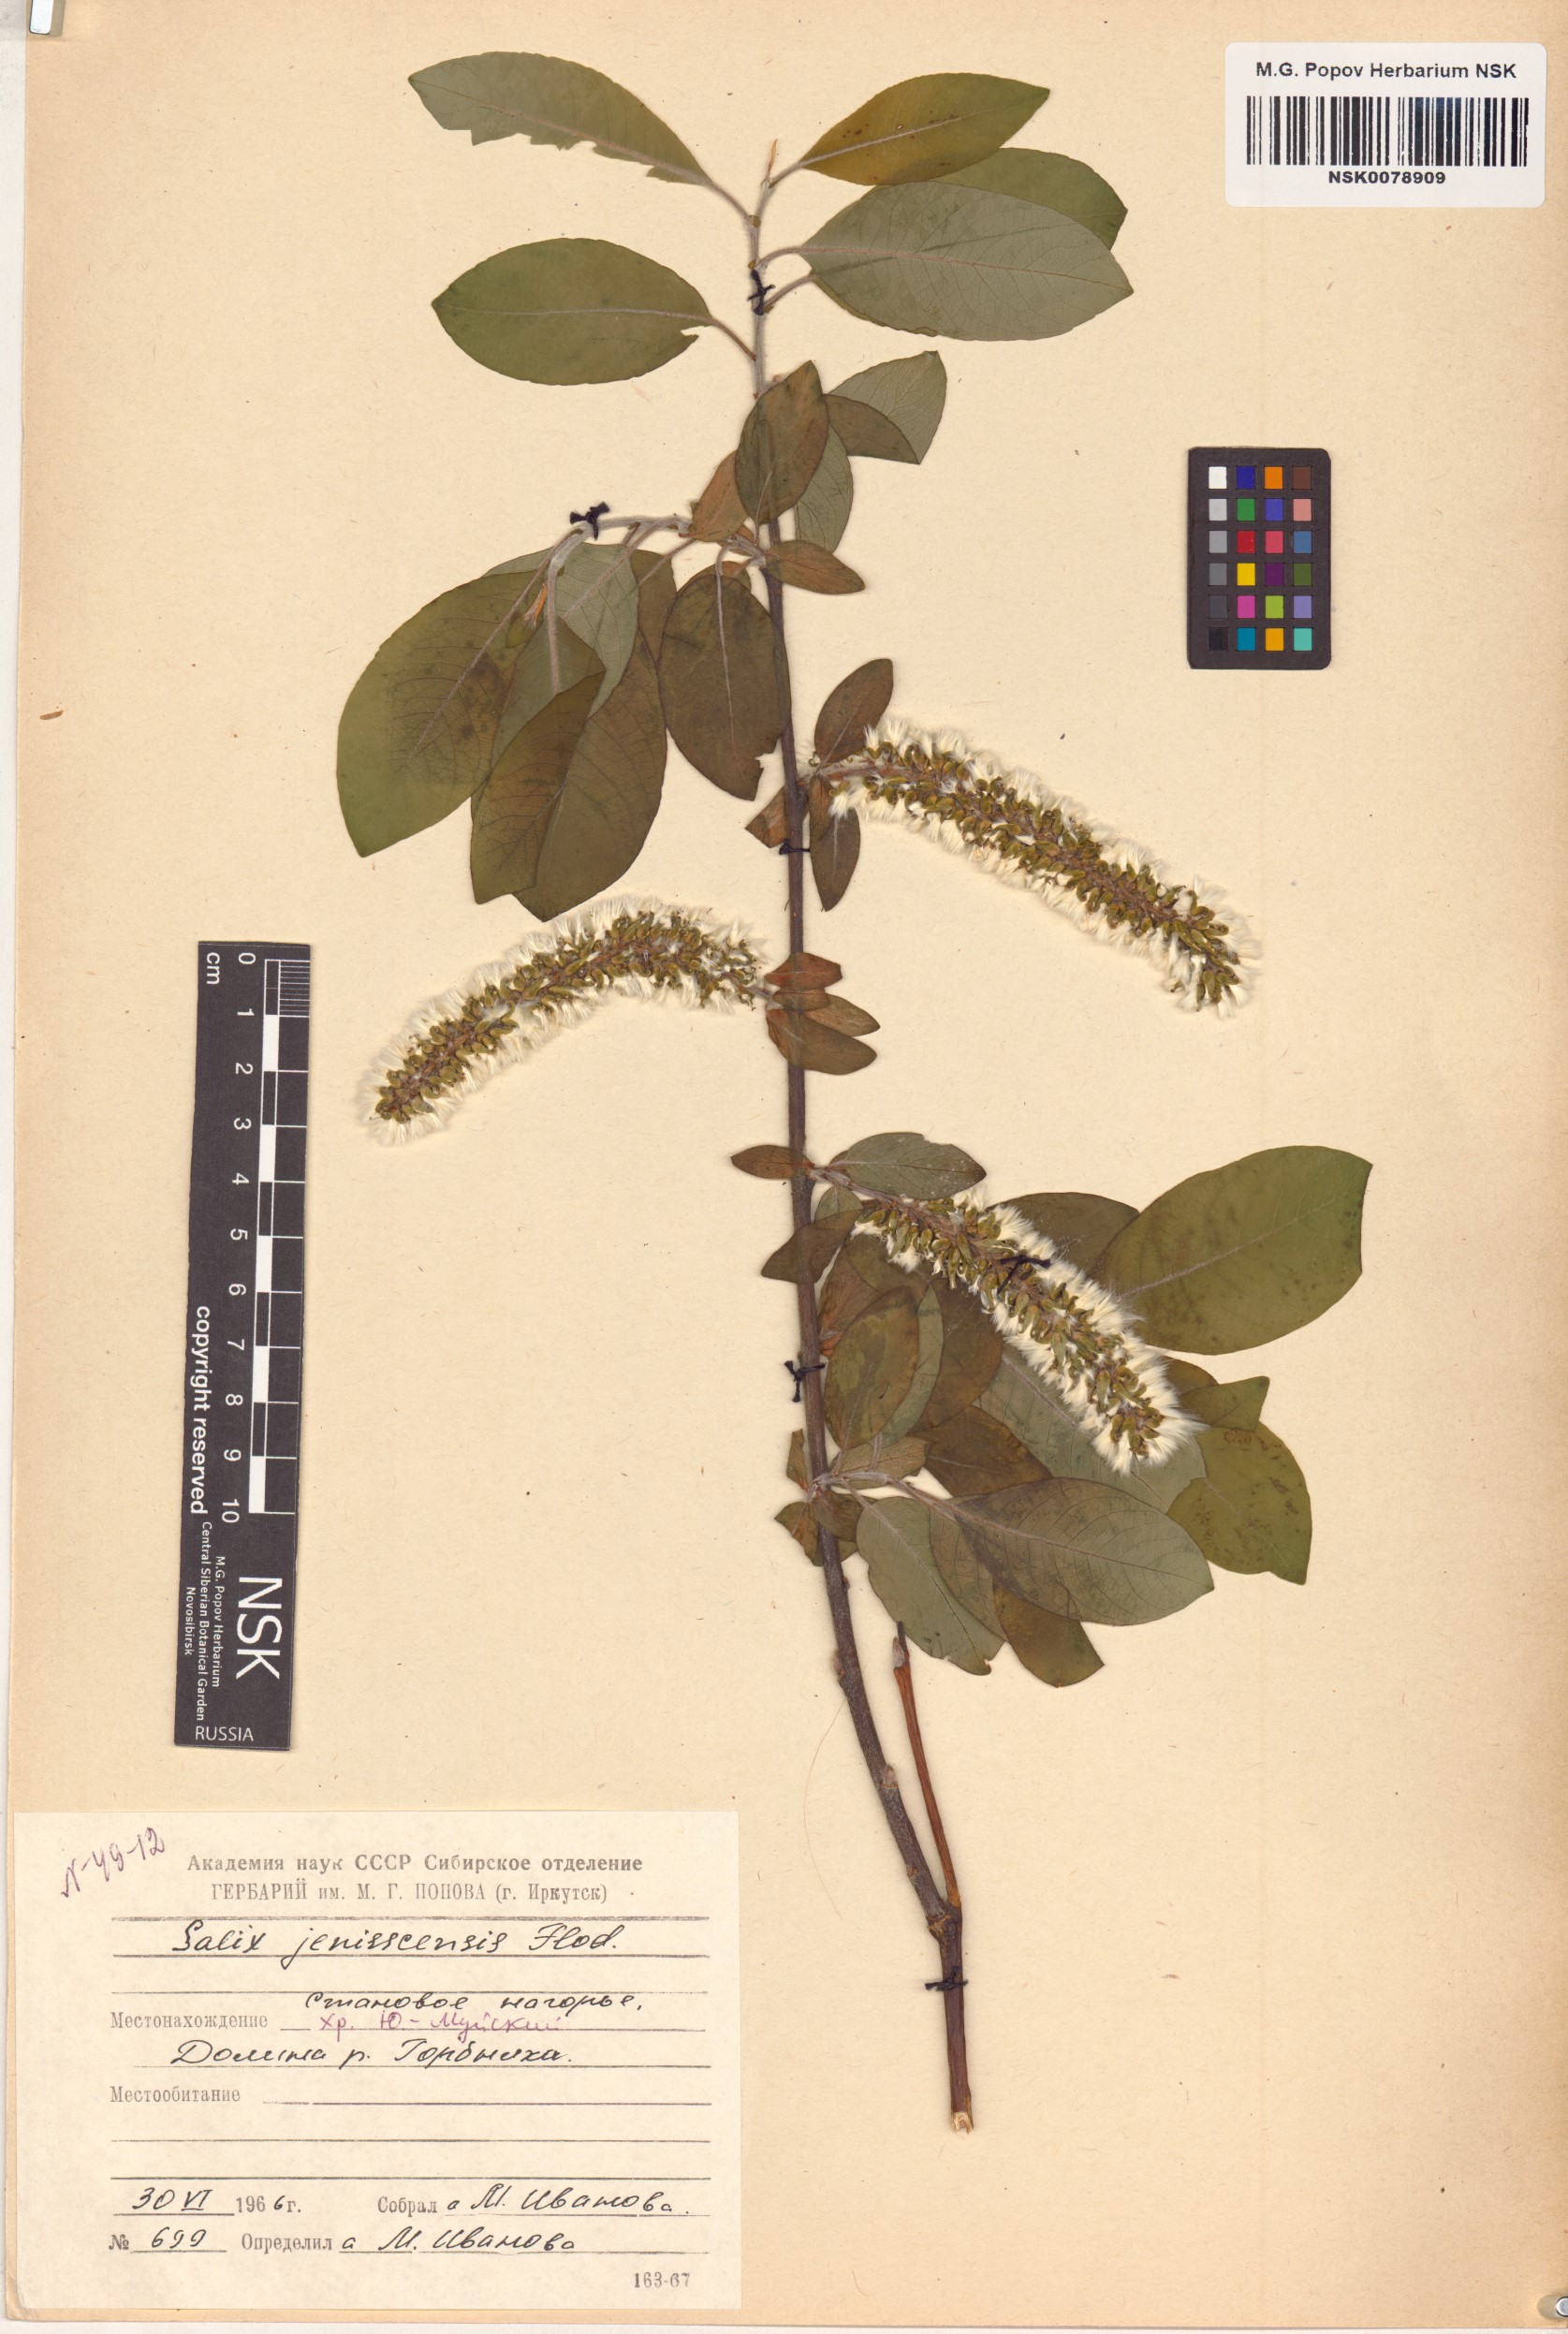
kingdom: Plantae
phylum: Tracheophyta
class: Magnoliopsida
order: Malpighiales
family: Salicaceae
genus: Salix
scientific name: Salix jenisseensis
